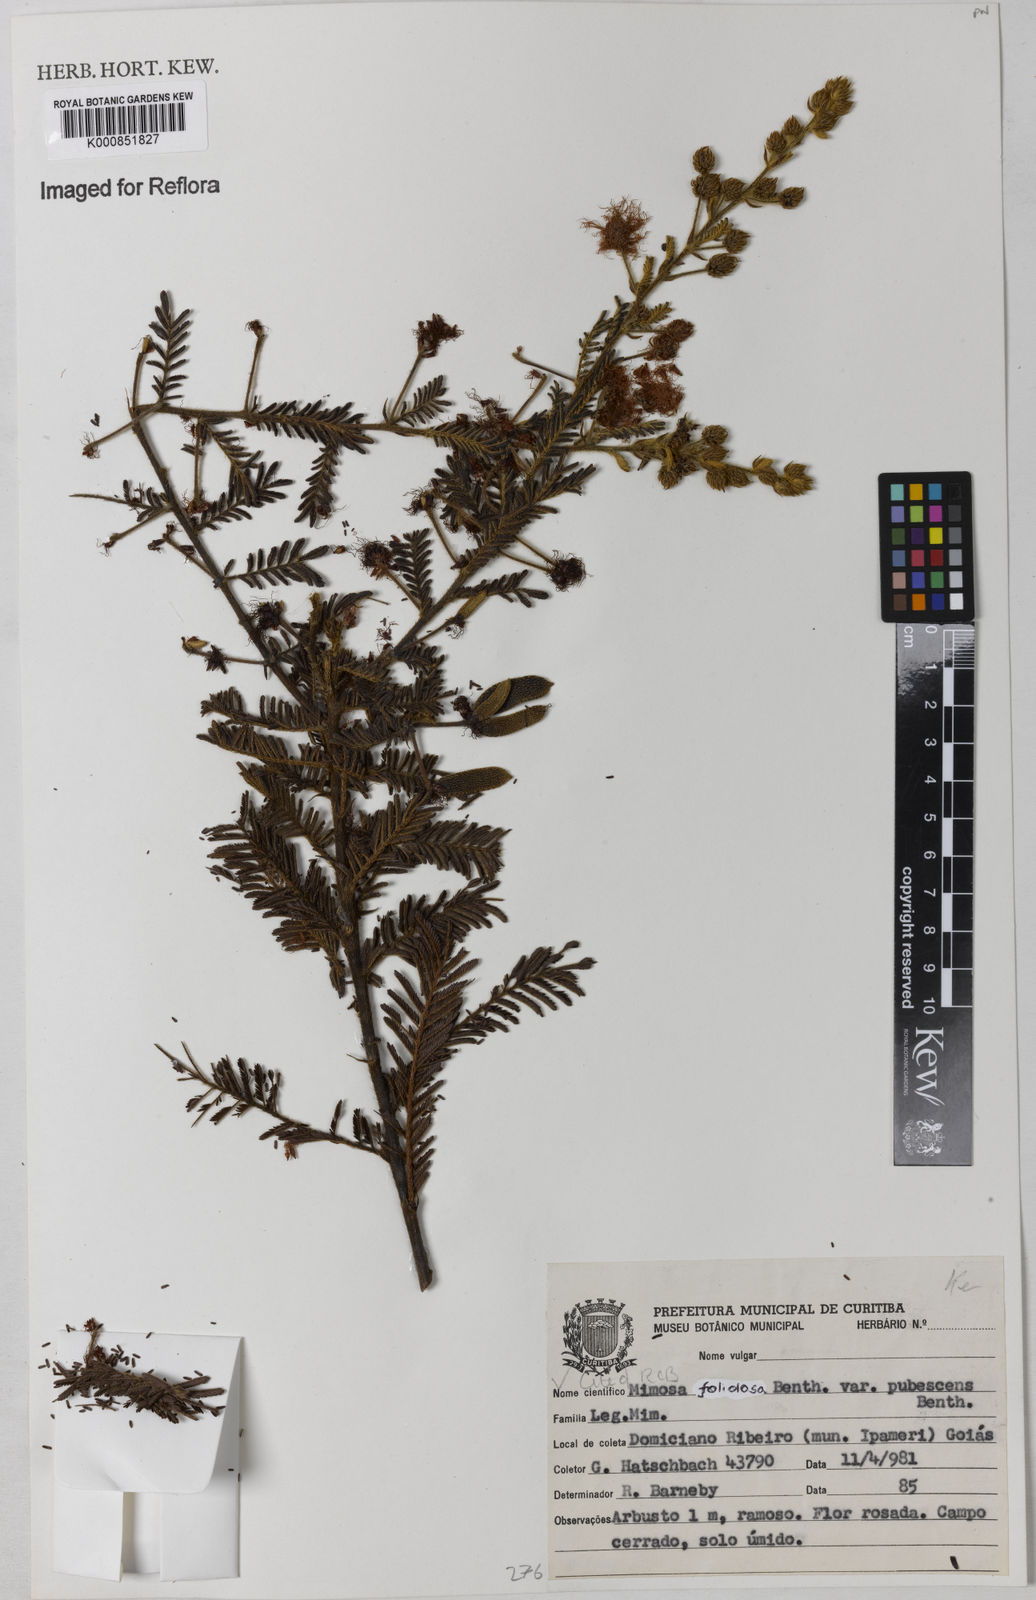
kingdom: Plantae
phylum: Tracheophyta
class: Magnoliopsida
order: Fabales
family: Fabaceae
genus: Mimosa
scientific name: Mimosa foliolosa
